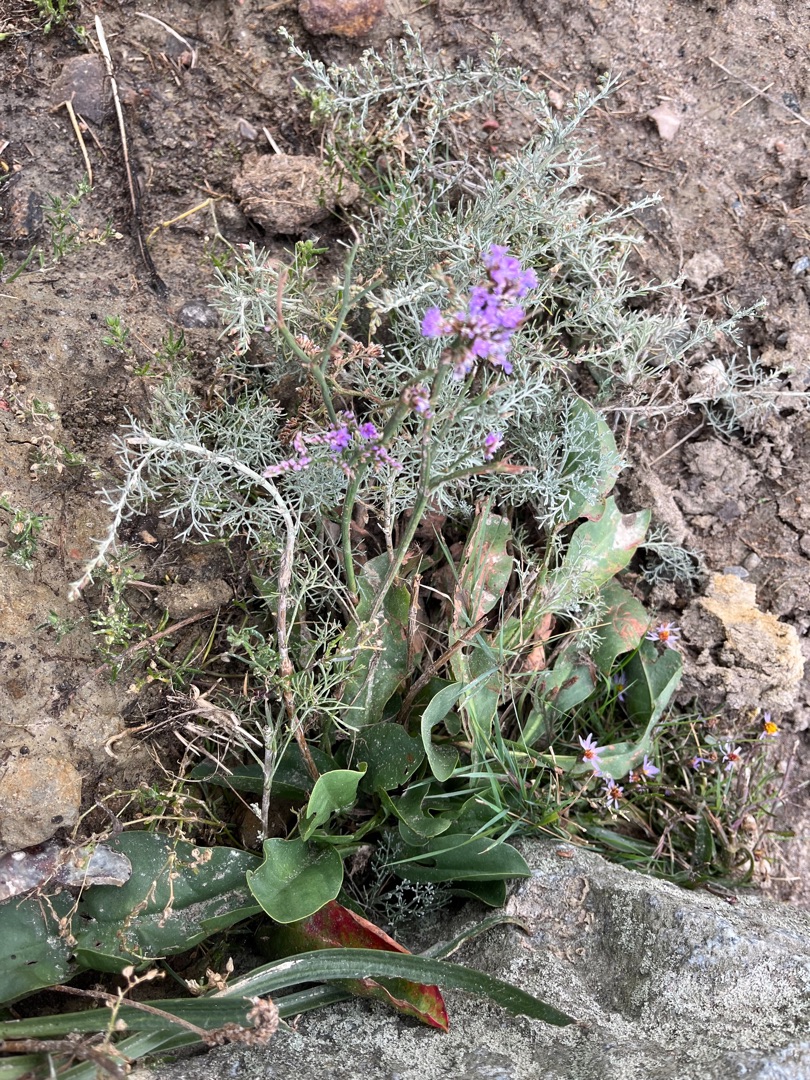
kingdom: Plantae
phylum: Tracheophyta
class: Magnoliopsida
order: Caryophyllales
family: Plumbaginaceae
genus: Limonium
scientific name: Limonium vulgare
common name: Tætblomstret hindebæger
